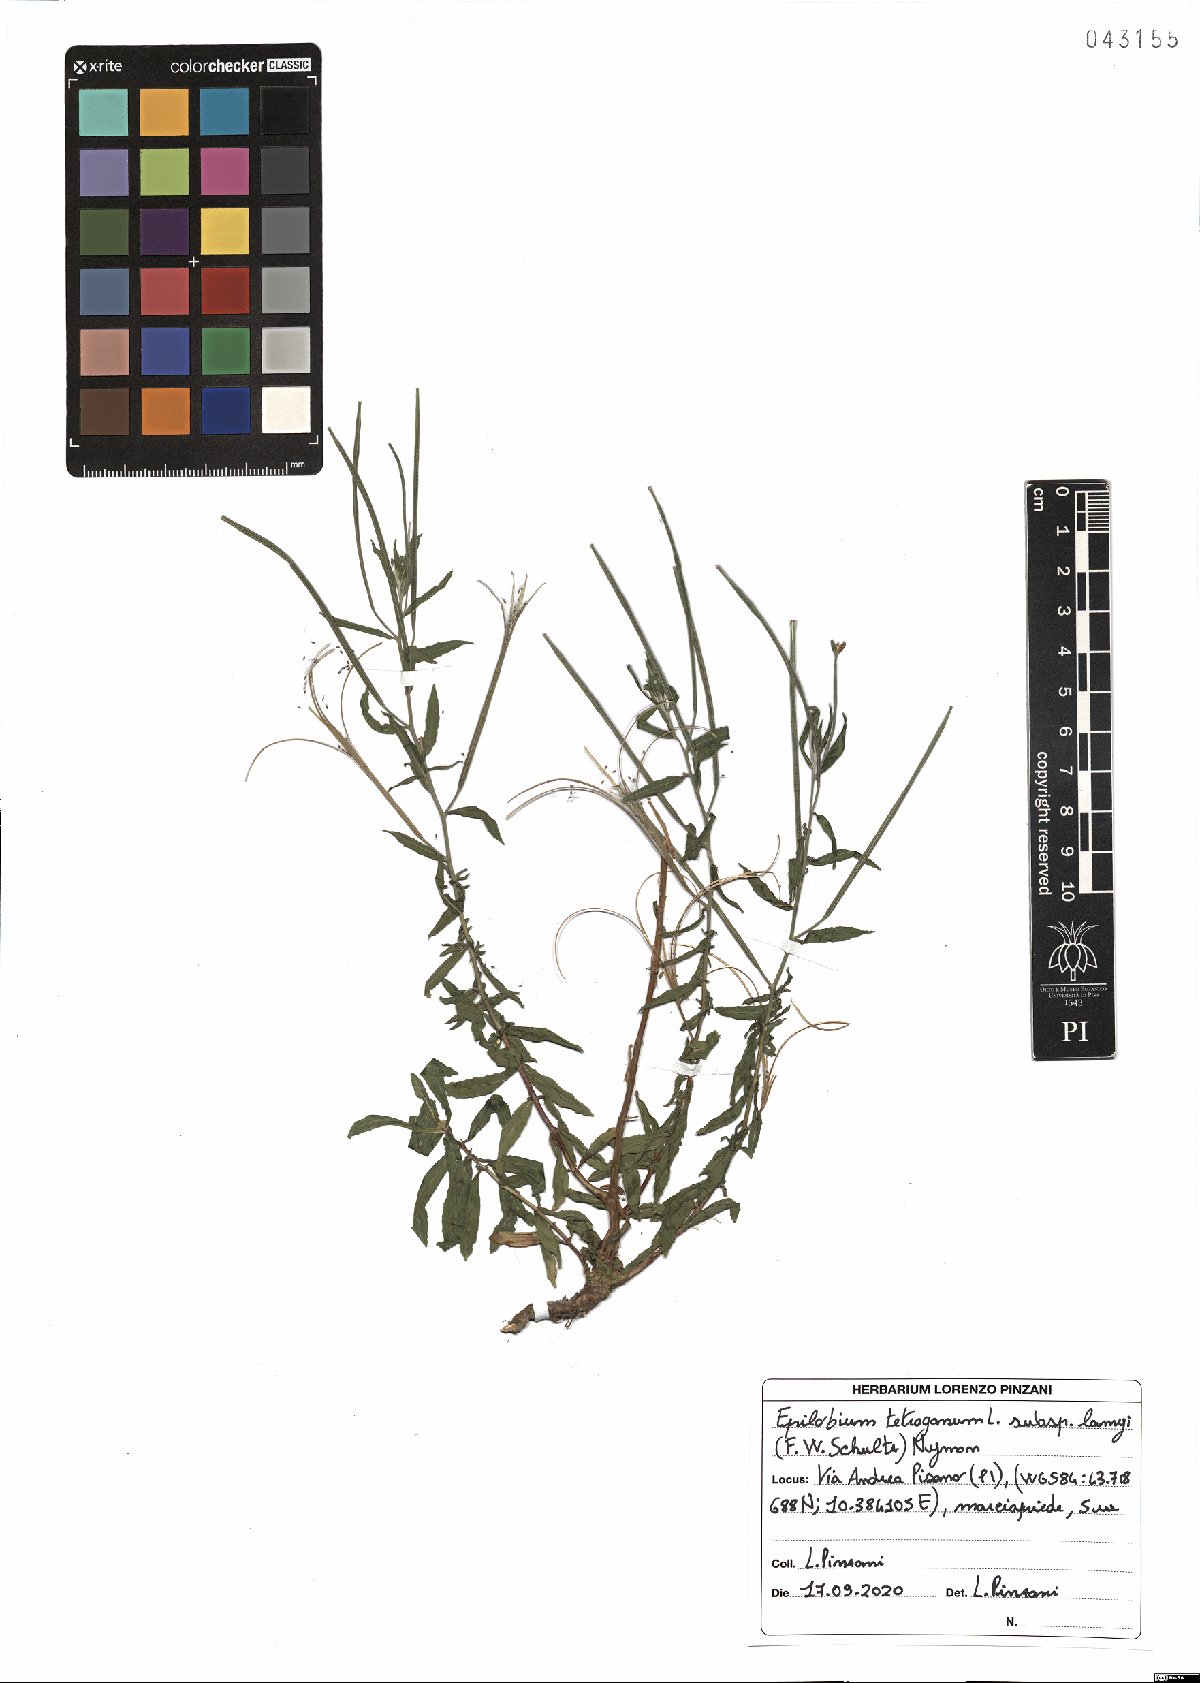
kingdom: Plantae
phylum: Tracheophyta
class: Magnoliopsida
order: Myrtales
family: Onagraceae
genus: Epilobium
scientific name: Epilobium lamyi
